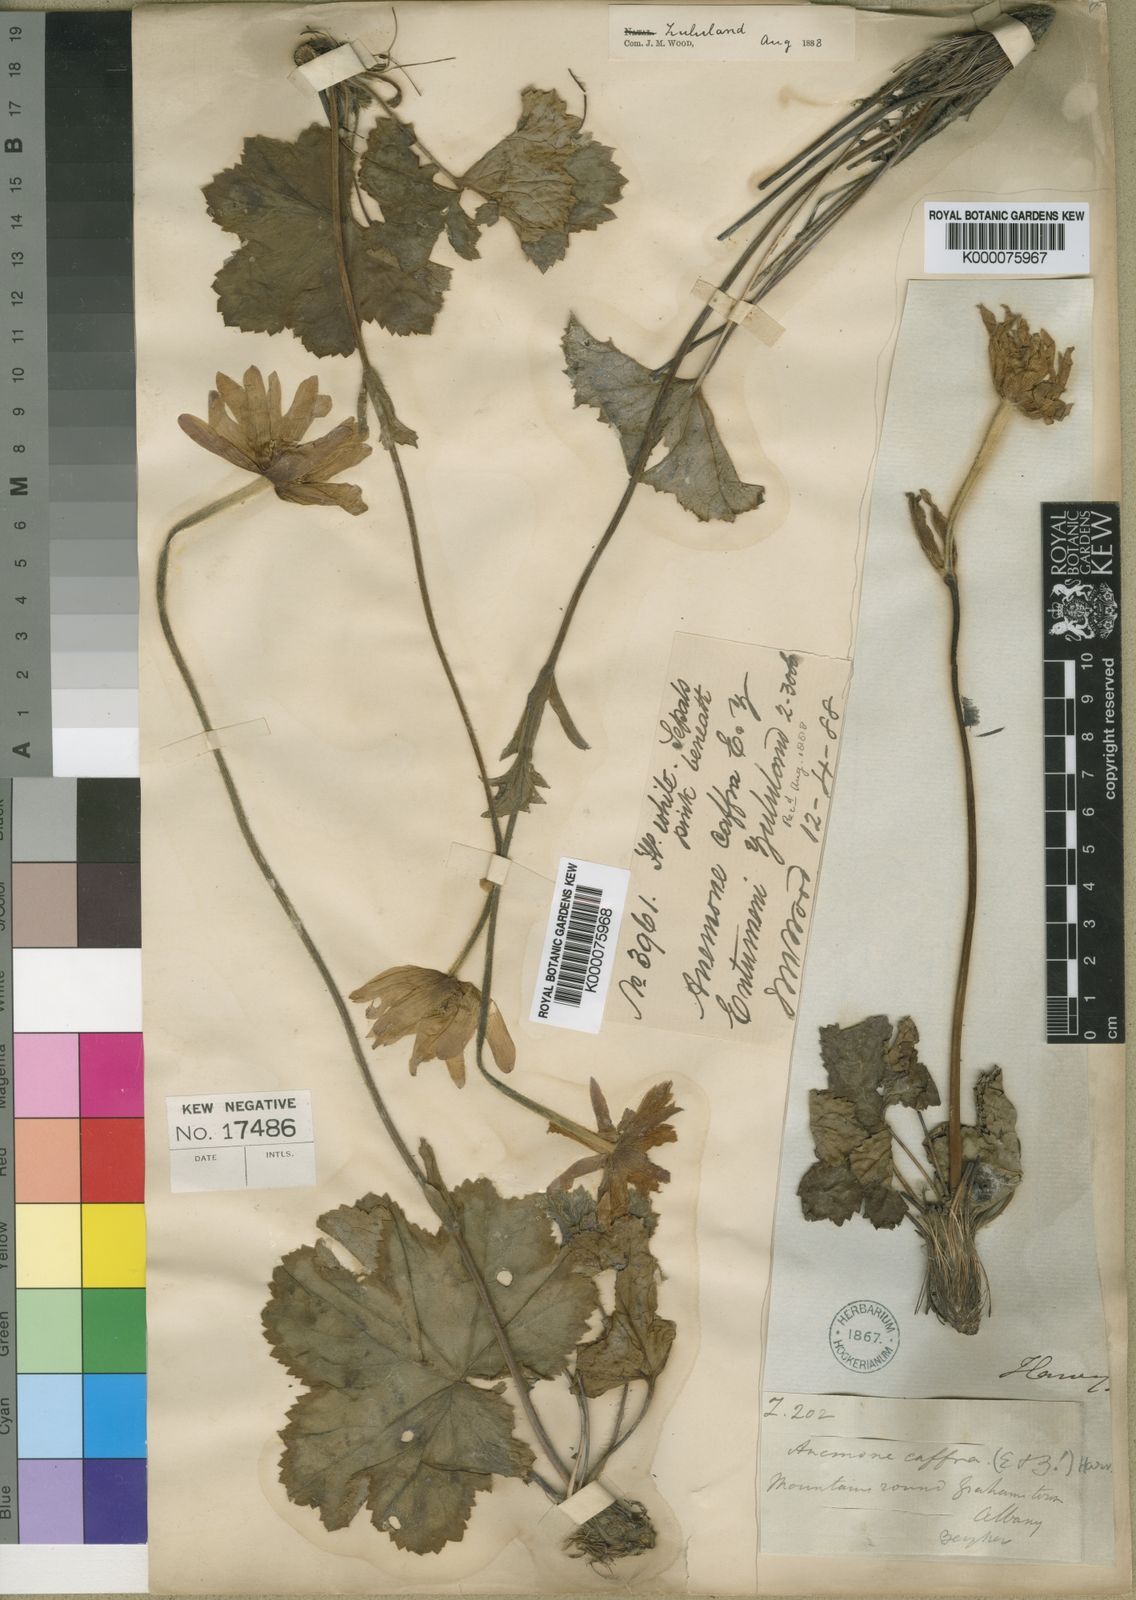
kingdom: Plantae
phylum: Tracheophyta
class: Magnoliopsida
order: Ranunculales
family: Ranunculaceae
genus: Knowltonia
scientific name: Knowltonia caffra
